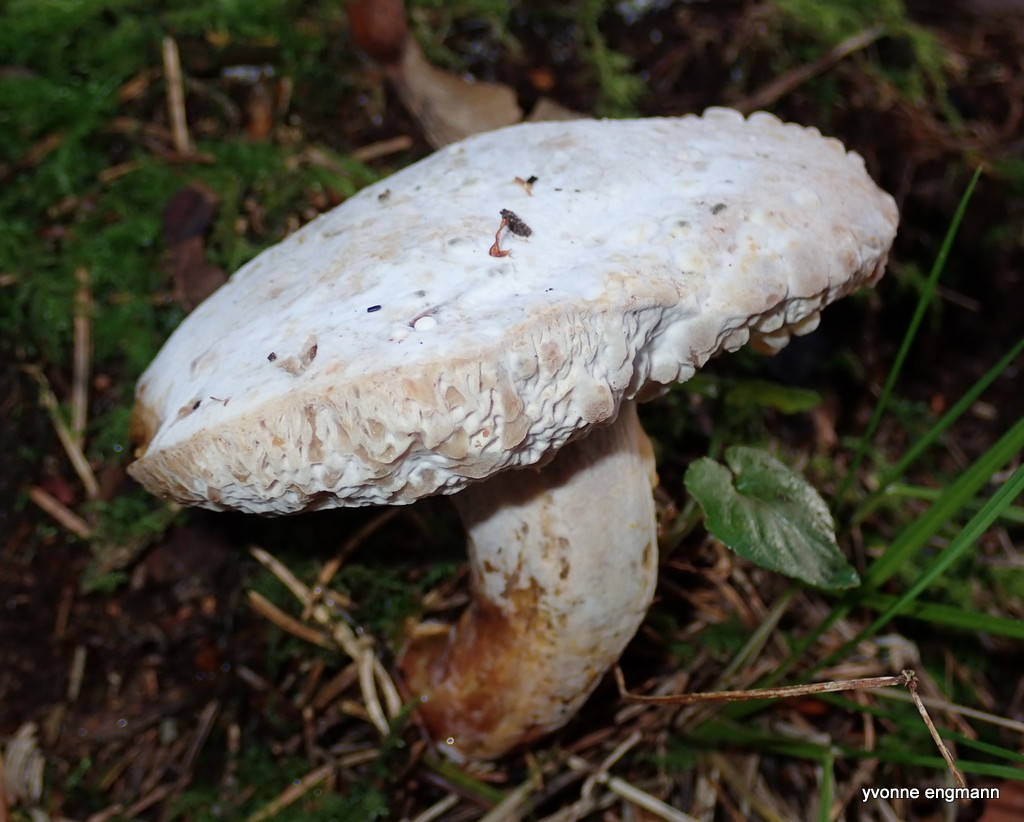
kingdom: Fungi
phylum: Ascomycota
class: Sordariomycetes
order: Hypocreales
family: Hypocreaceae
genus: Hypomyces
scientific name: Hypomyces
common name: snylteskorpe
